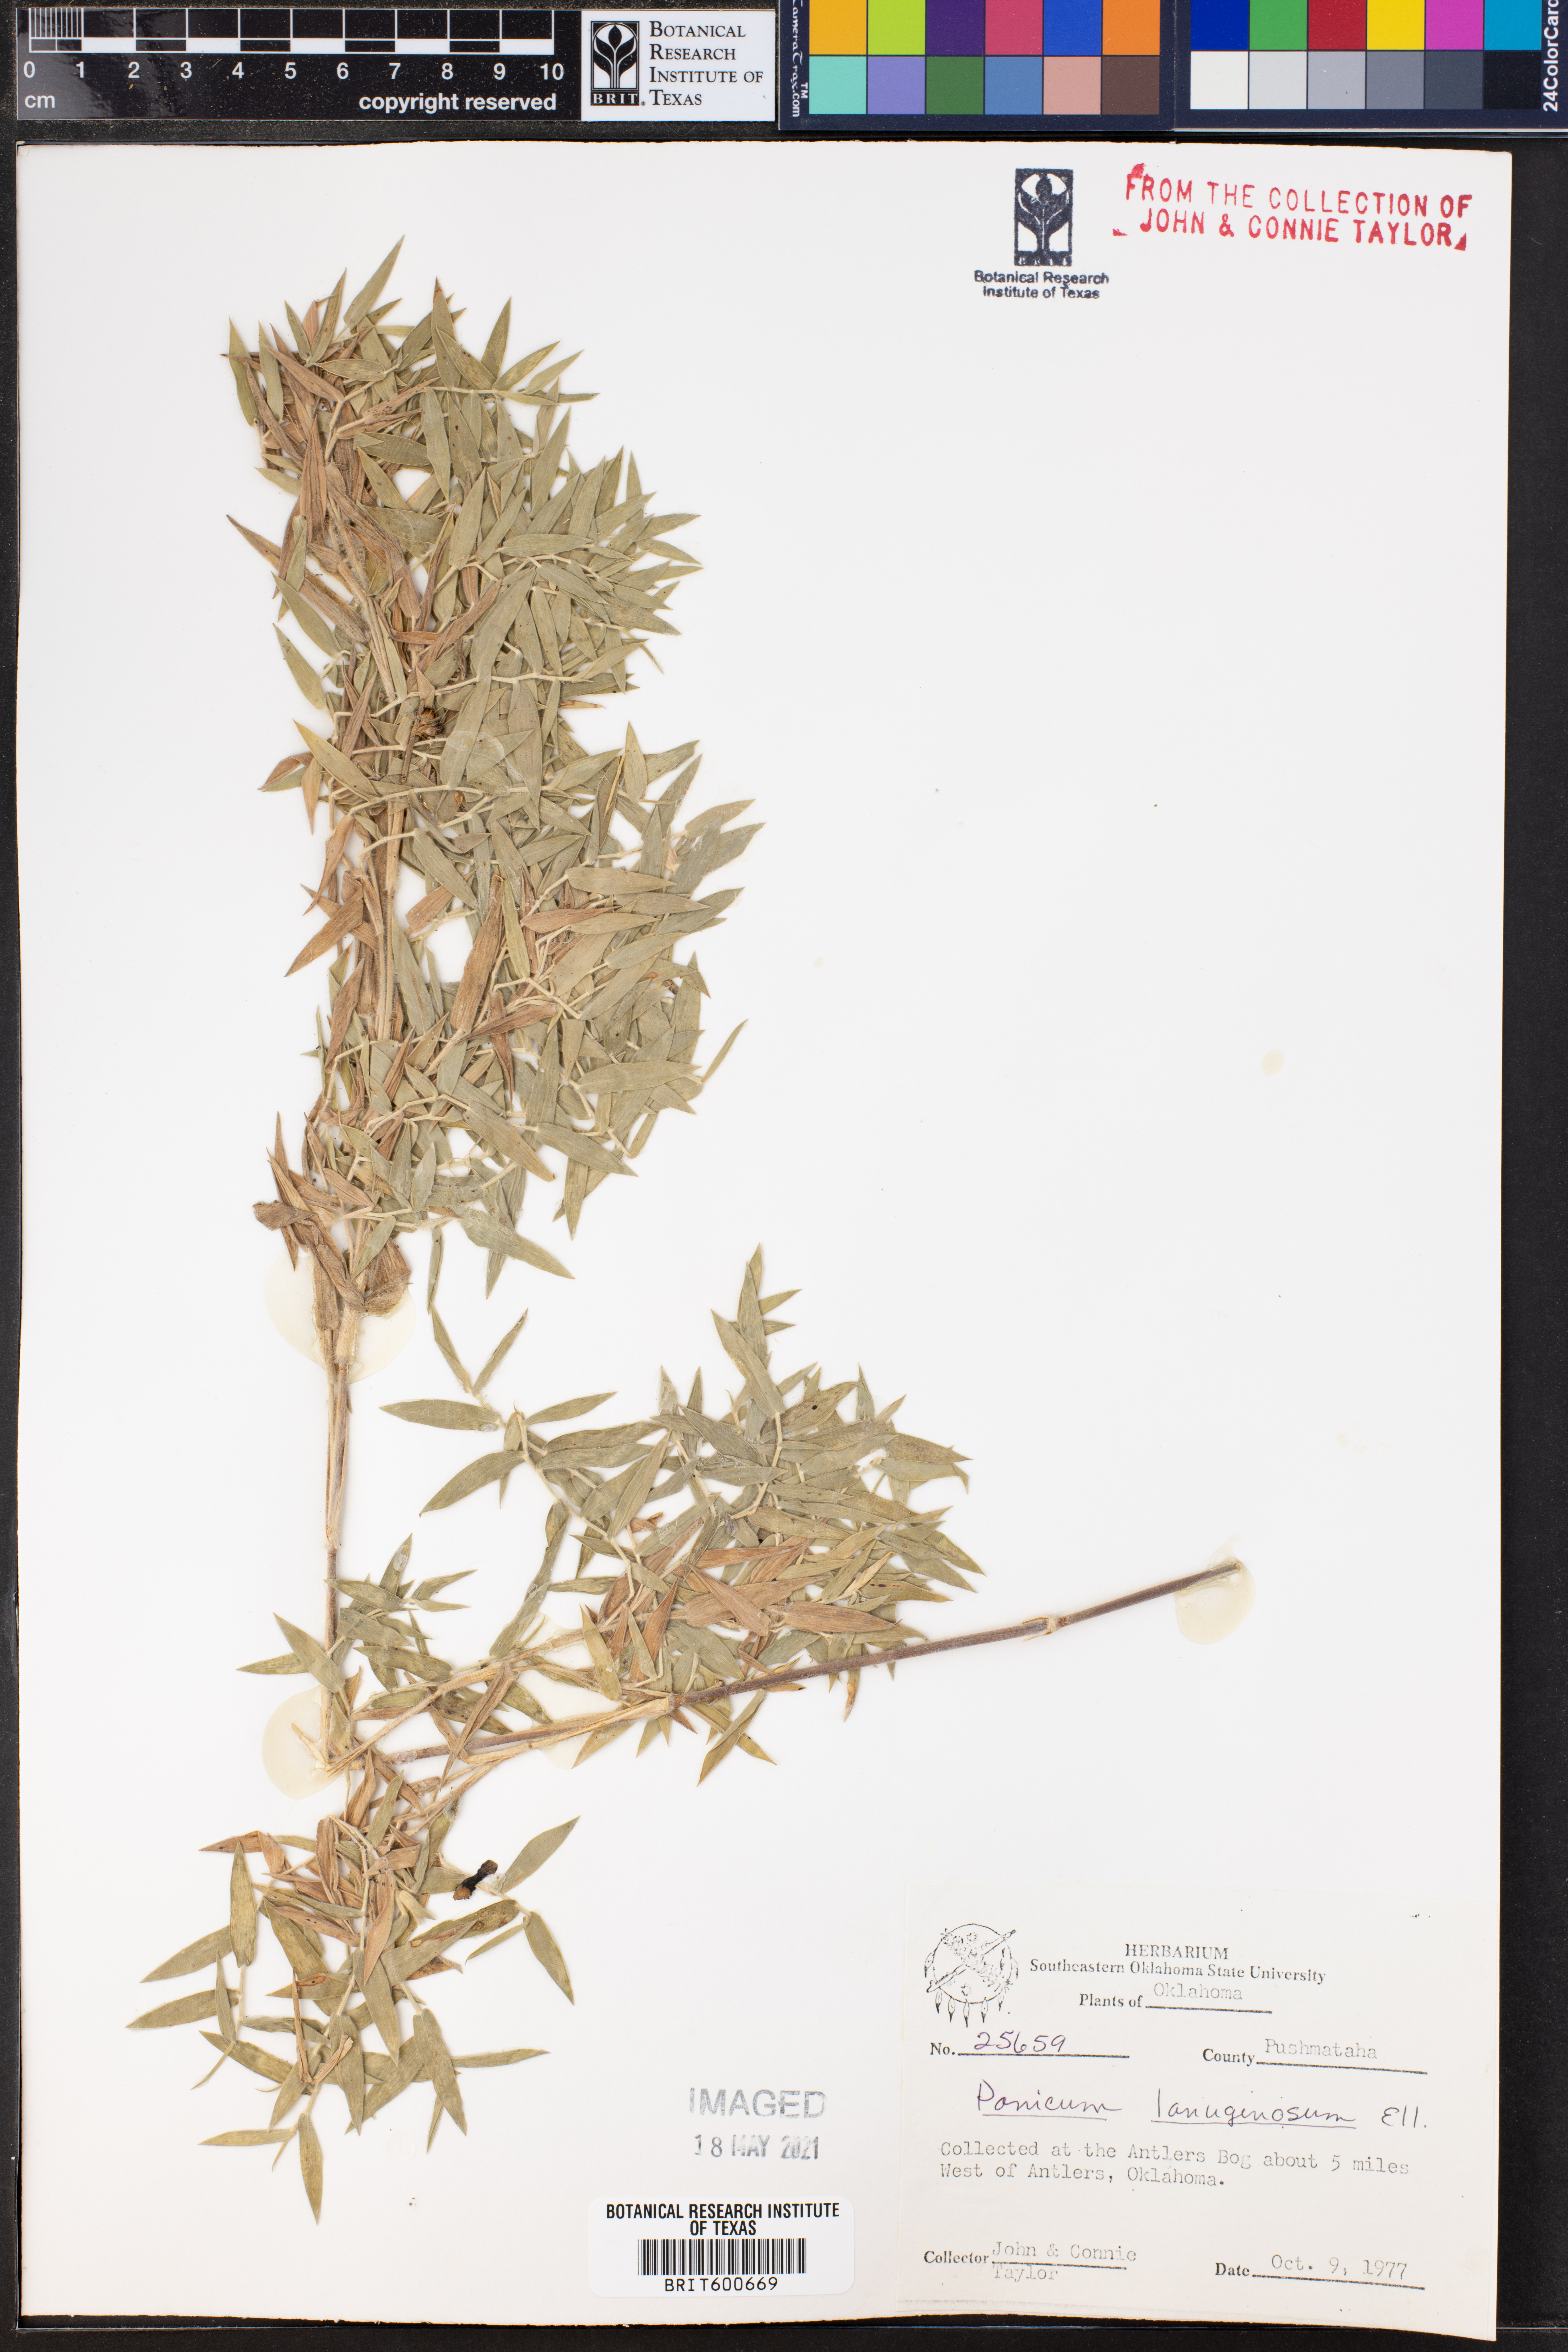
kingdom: Plantae
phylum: Tracheophyta
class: Liliopsida
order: Poales
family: Poaceae
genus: Dichanthelium
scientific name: Dichanthelium lanuginosum
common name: Woolly panicgrass
